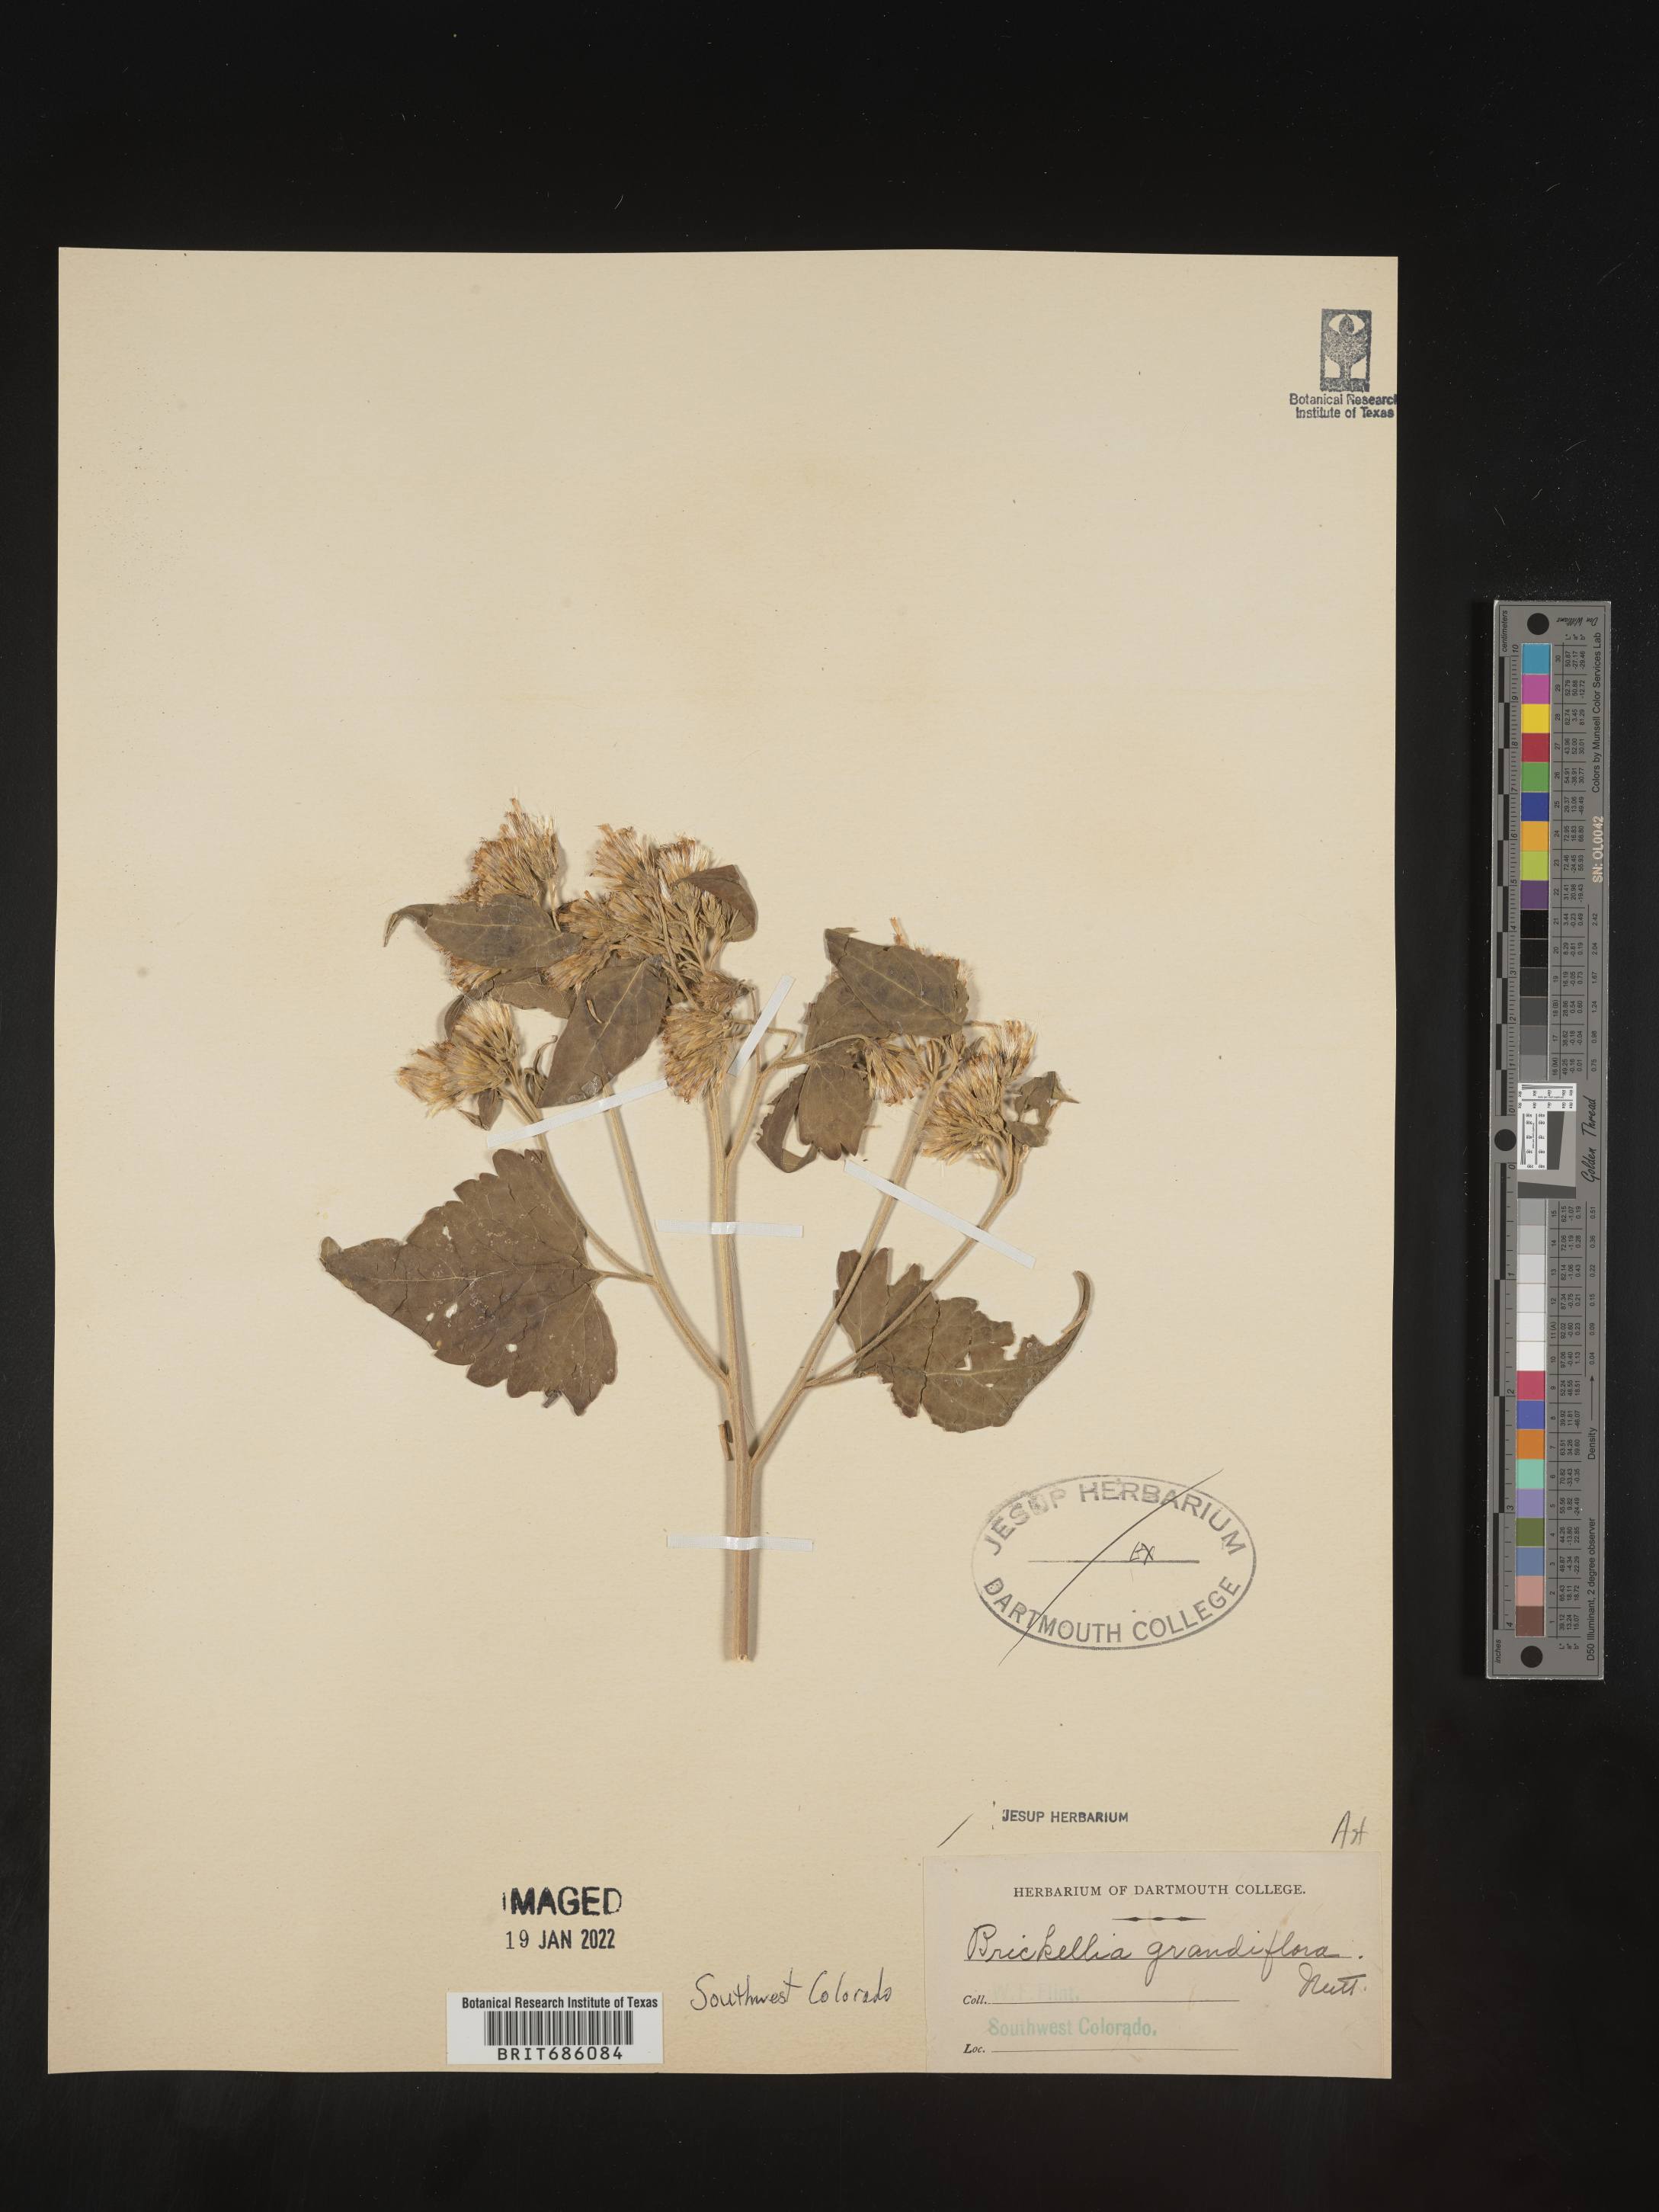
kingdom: Plantae
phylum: Tracheophyta
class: Magnoliopsida
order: Asterales
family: Asteraceae
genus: Brickellia
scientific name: Brickellia grandiflora
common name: Large-flowered brickellia
